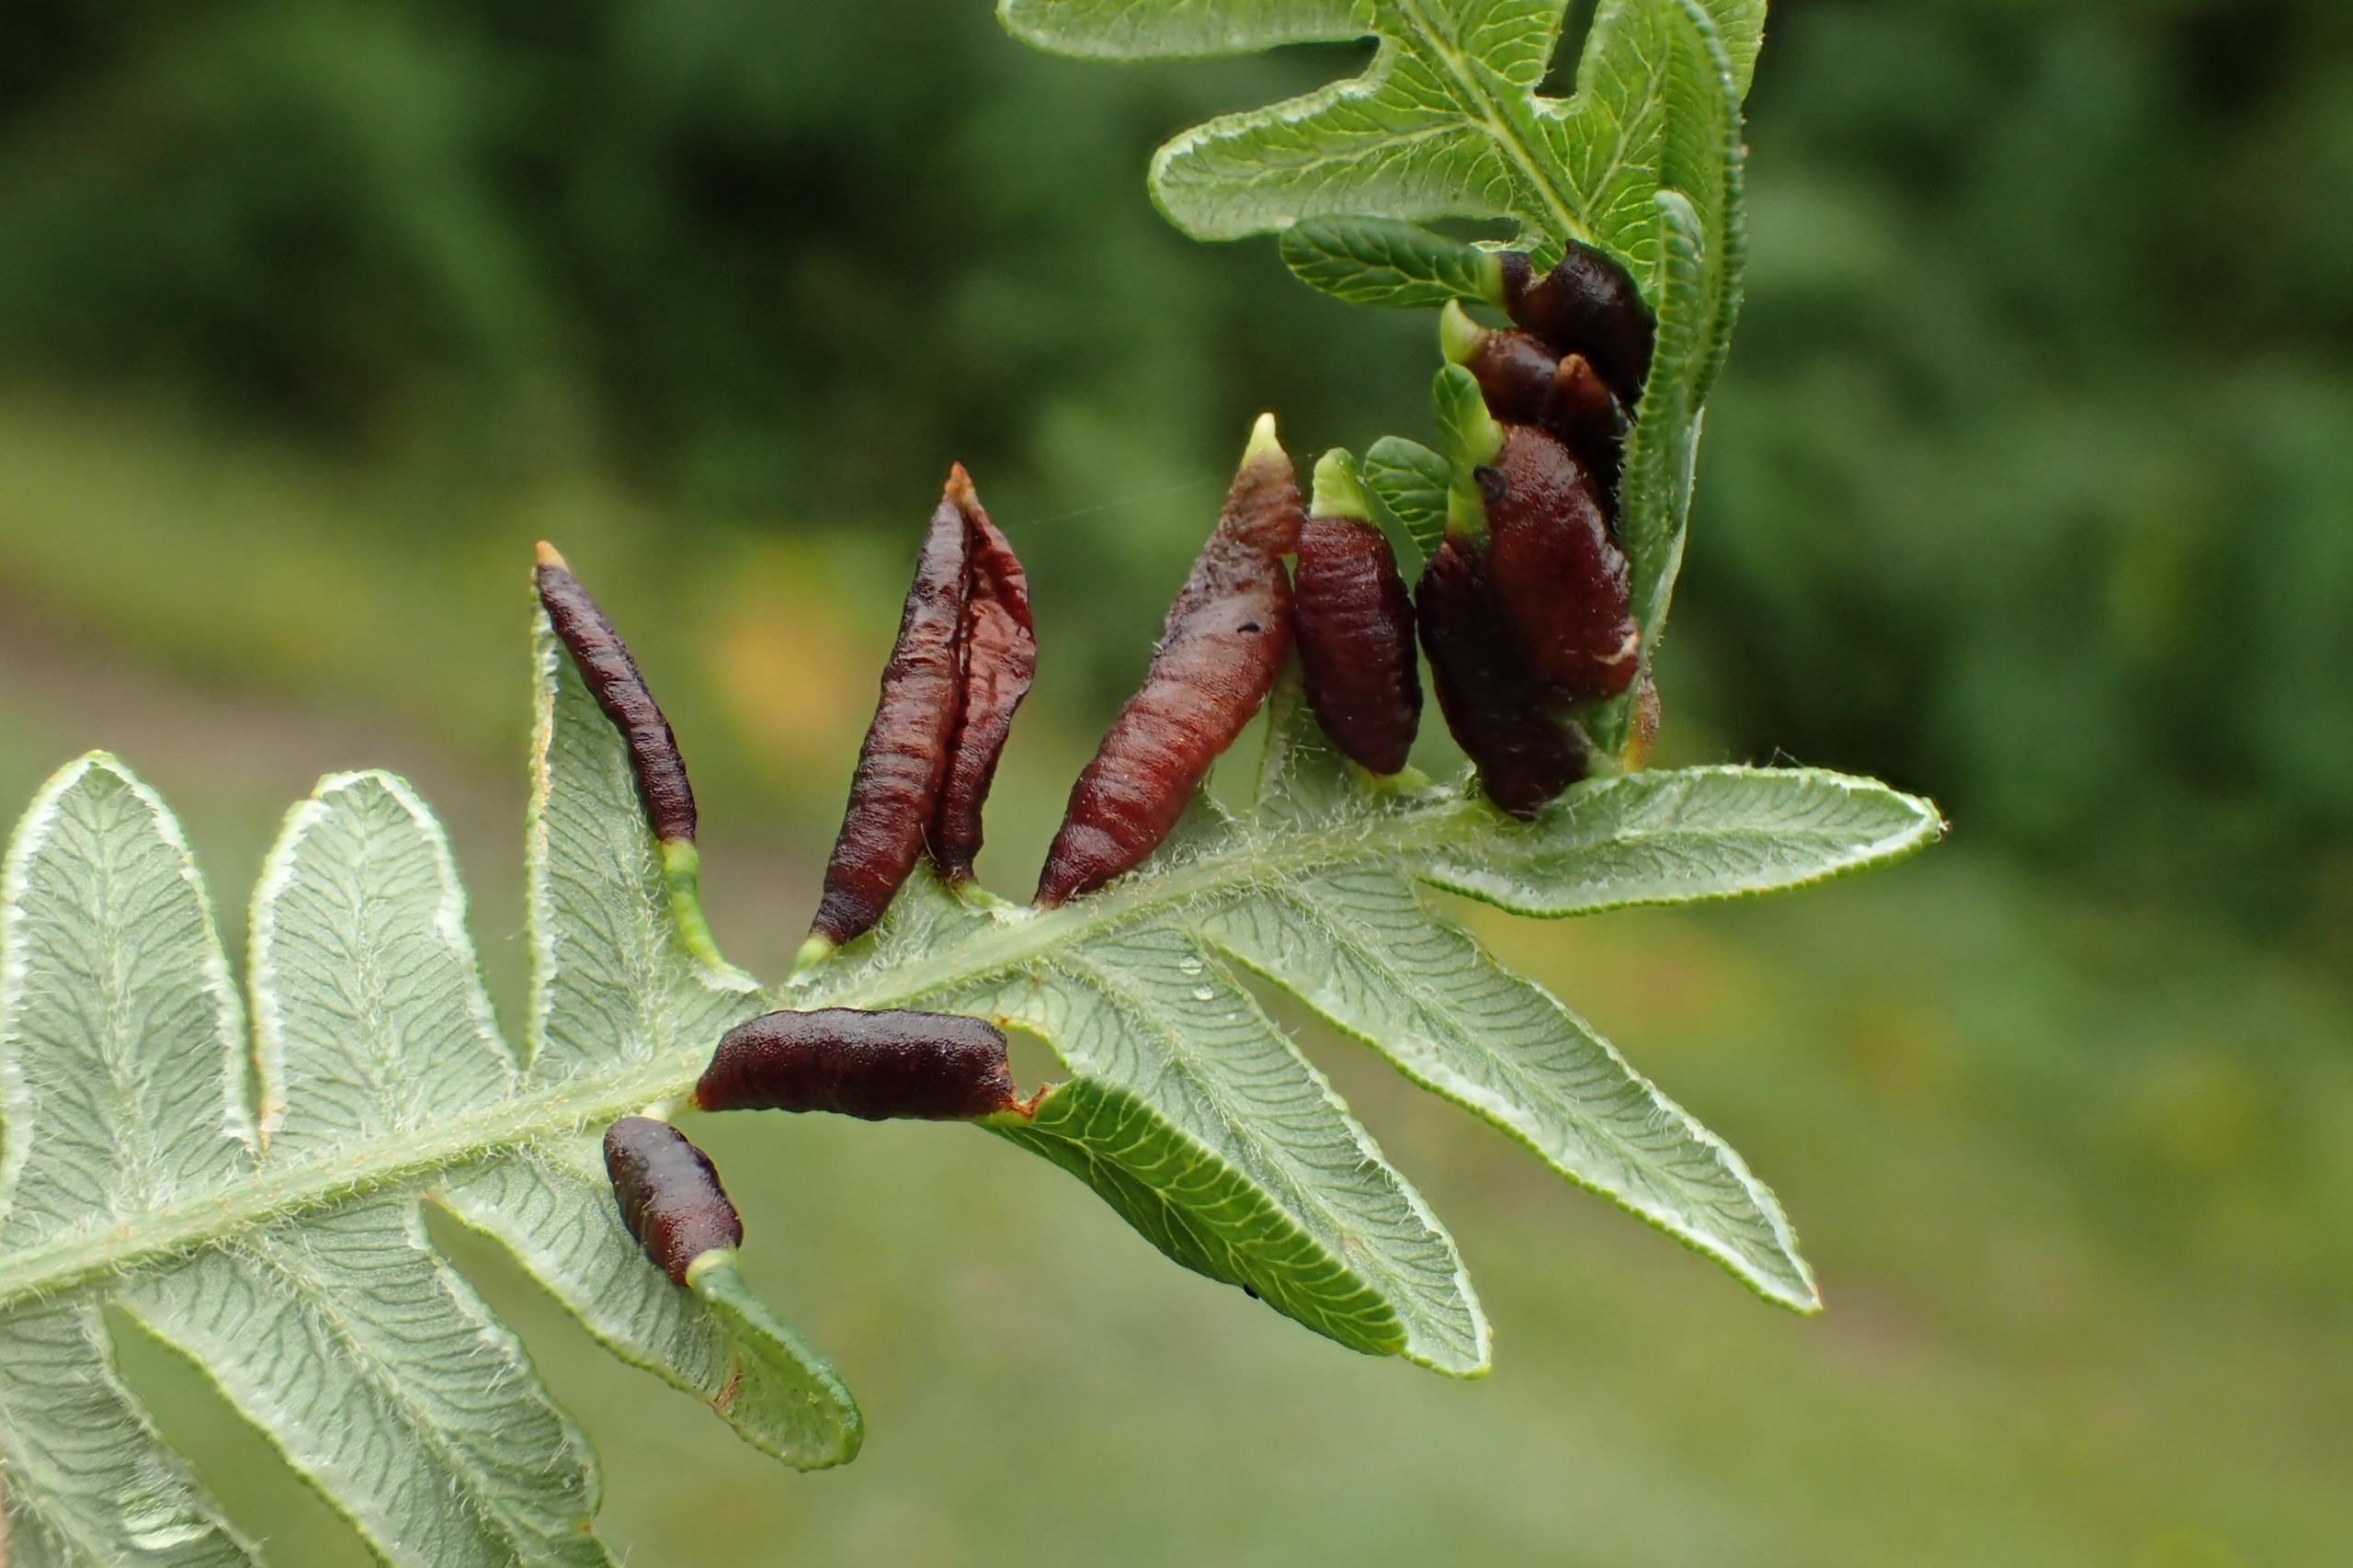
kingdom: Animalia
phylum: Arthropoda
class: Insecta
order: Diptera
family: Cecidomyiidae
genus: Dasineura
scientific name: Dasineura pteridis
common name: Orange ørnebregnegalmyg
